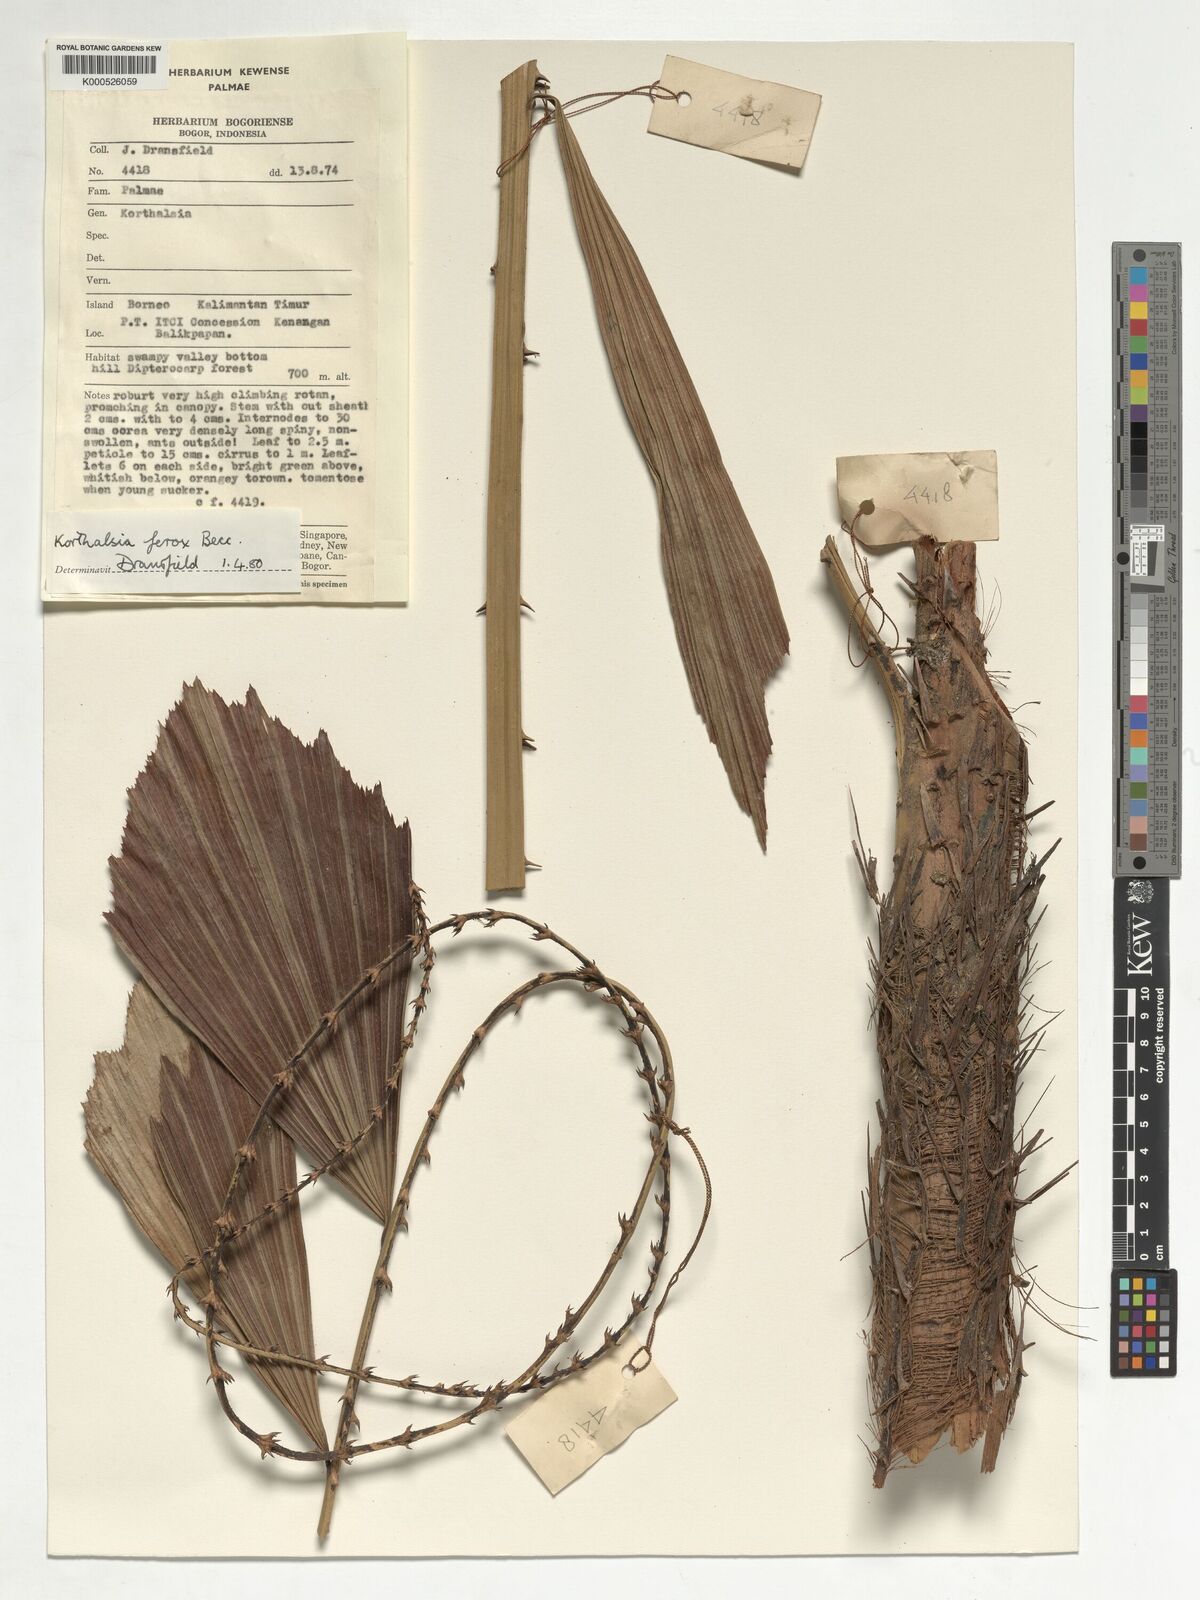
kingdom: Plantae
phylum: Tracheophyta
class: Liliopsida
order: Arecales
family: Arecaceae
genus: Korthalsia
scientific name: Korthalsia ferox
